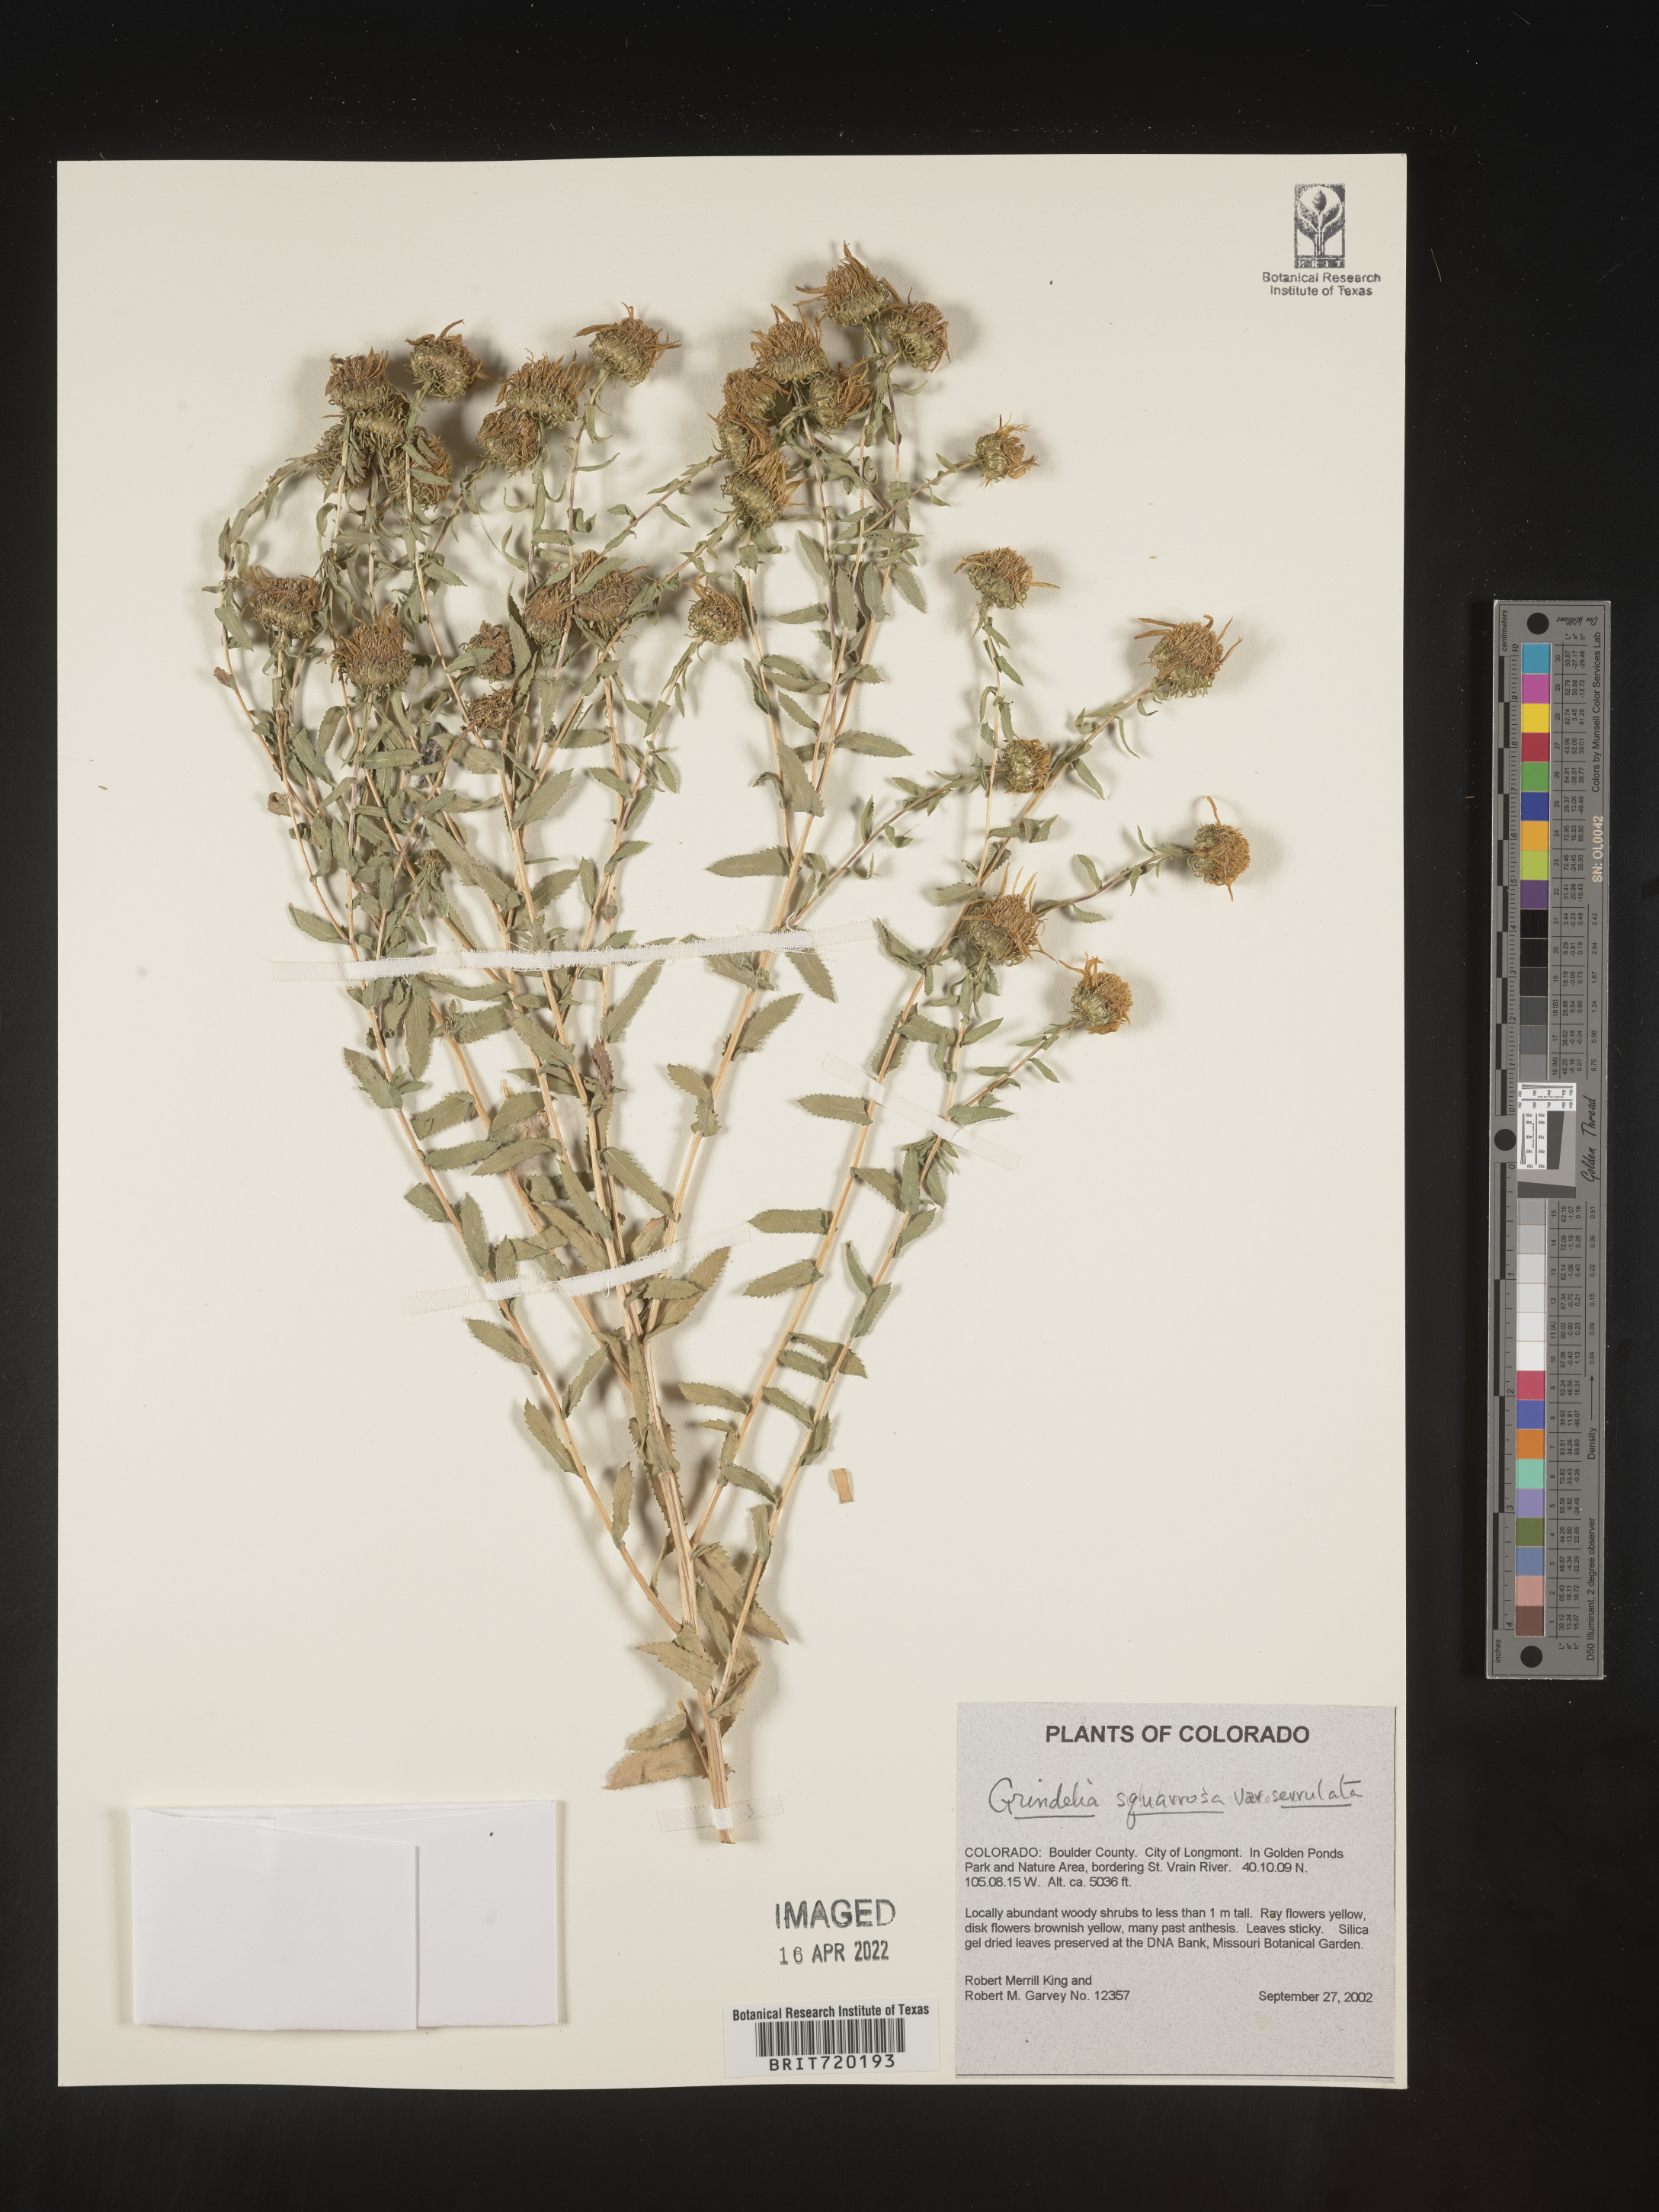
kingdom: Plantae
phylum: Tracheophyta
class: Magnoliopsida
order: Asterales
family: Asteraceae
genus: Grindelia
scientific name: Grindelia hirsutula
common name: Hairy gumweed
